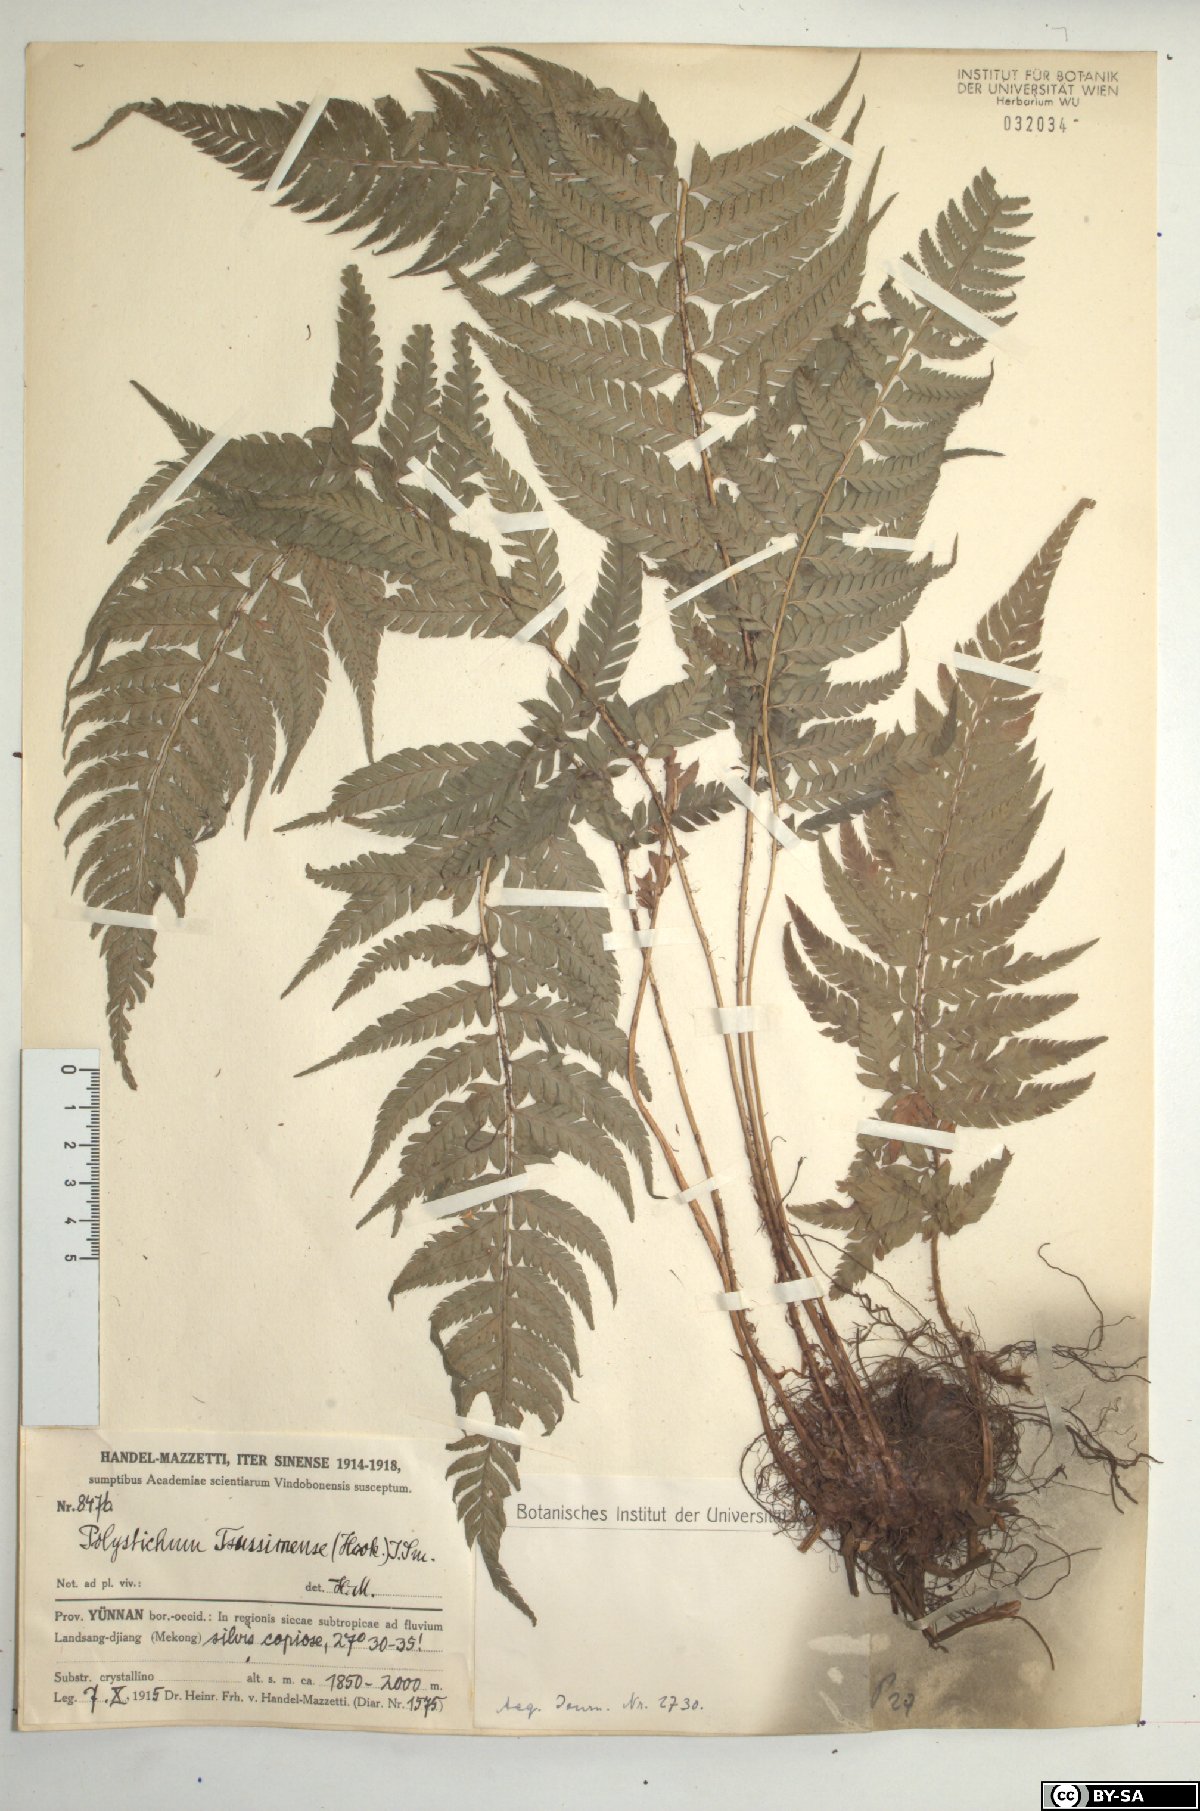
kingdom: Plantae
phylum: Tracheophyta
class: Polypodiopsida
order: Polypodiales
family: Dryopteridaceae
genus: Polystichum
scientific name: Polystichum luctuosum
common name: Korean rockfern
